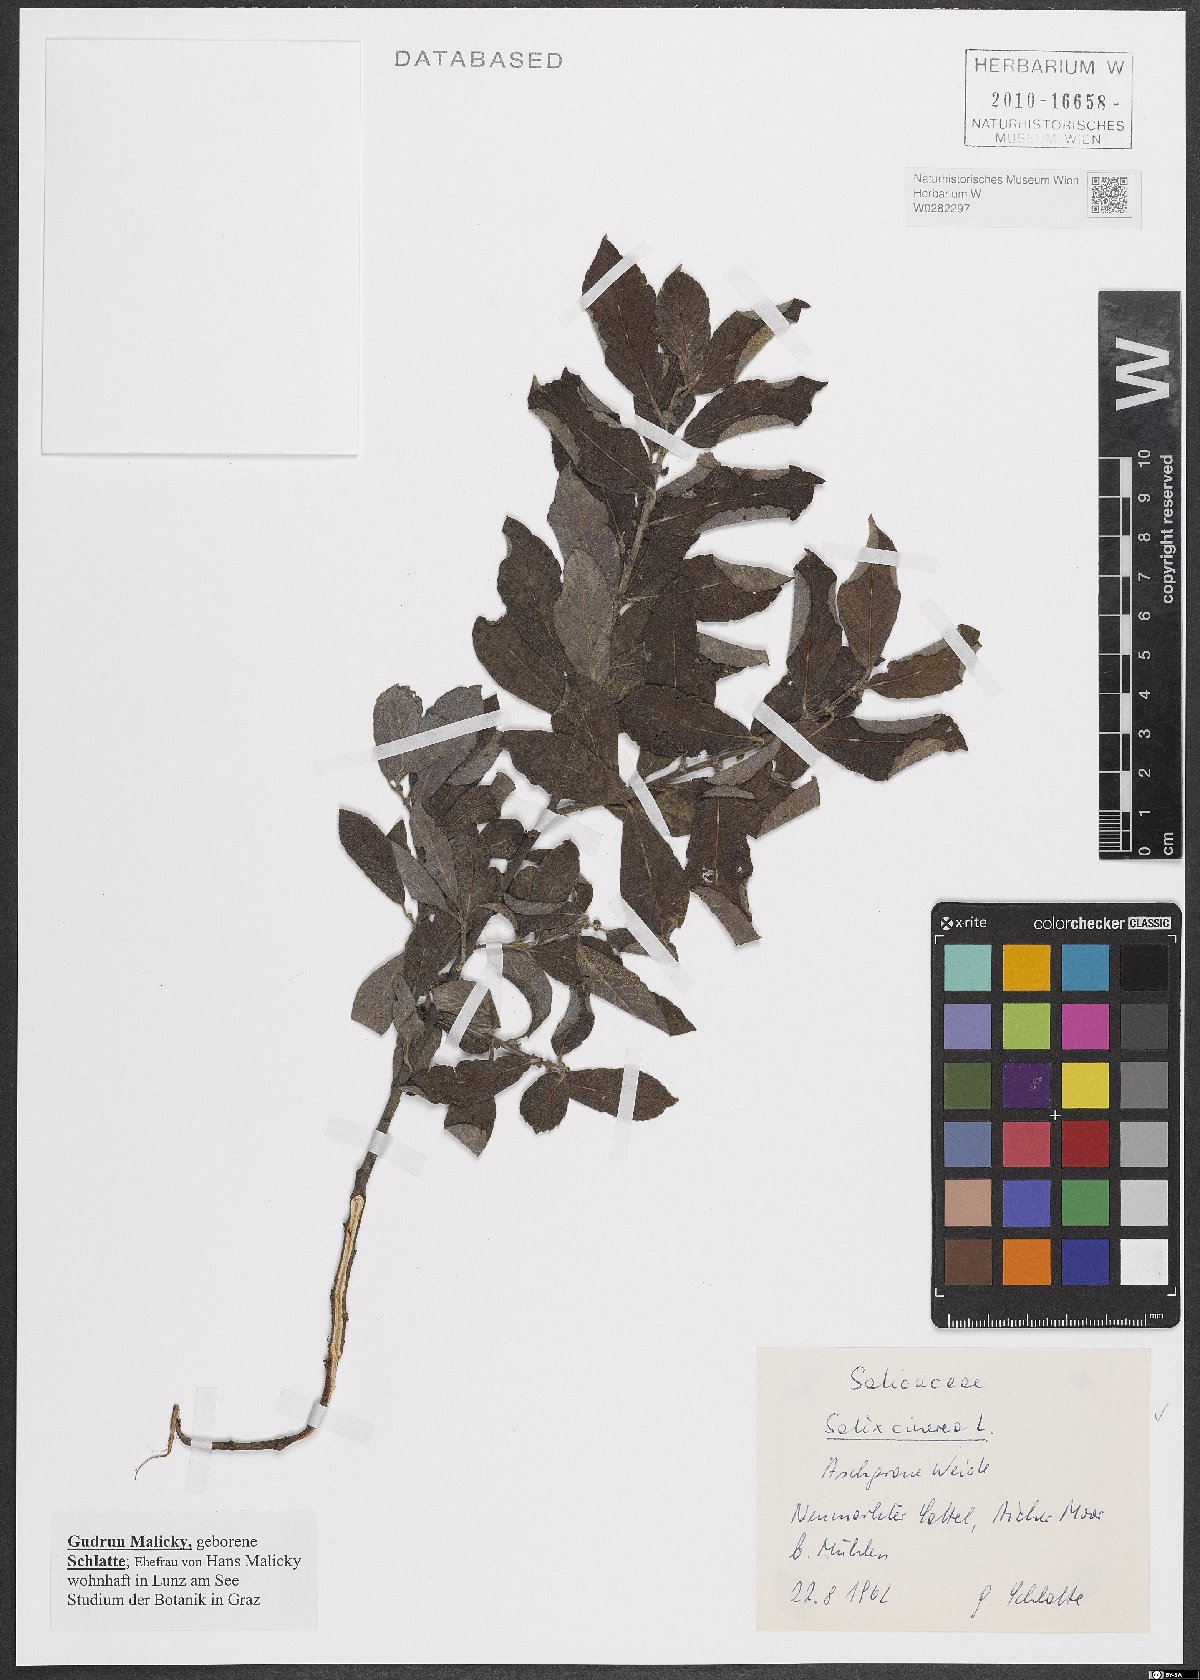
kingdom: Plantae
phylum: Tracheophyta
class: Magnoliopsida
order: Malpighiales
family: Salicaceae
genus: Salix
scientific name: Salix cinerea
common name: Common sallow
